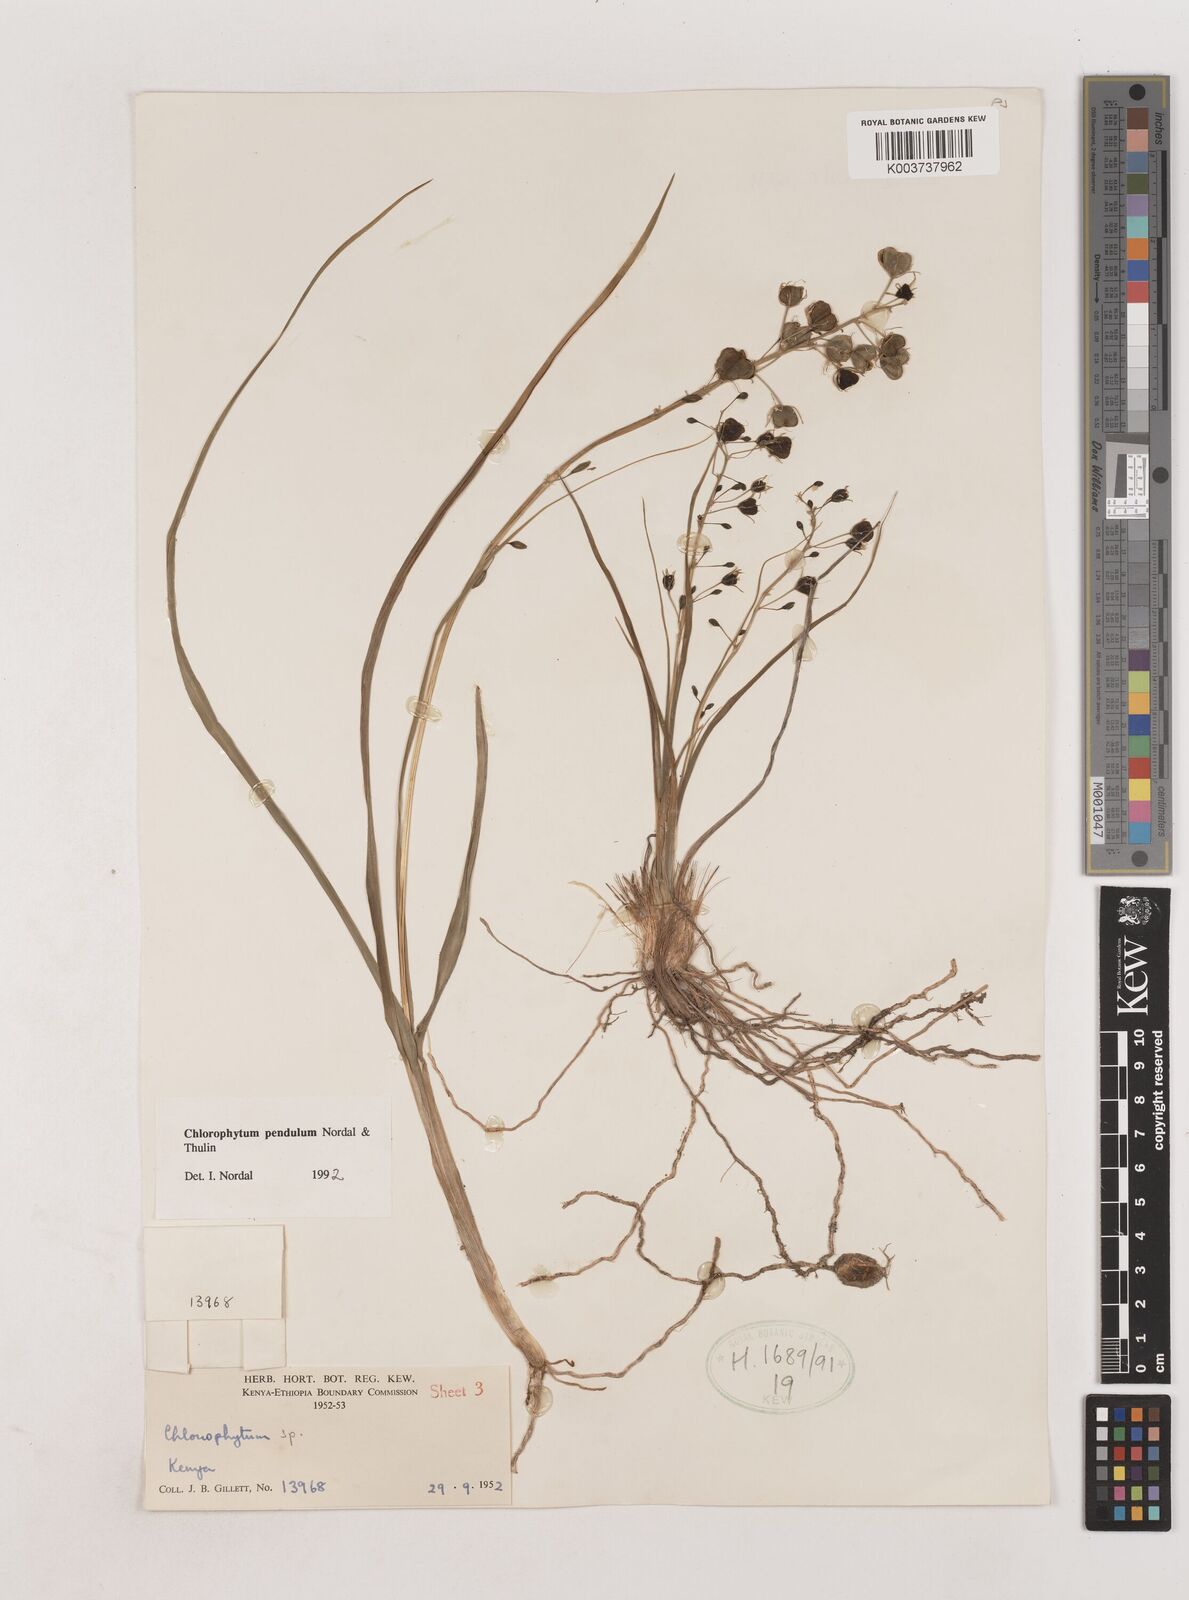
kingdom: Plantae
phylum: Tracheophyta
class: Liliopsida
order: Asparagales
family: Asparagaceae
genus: Chlorophytum
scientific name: Chlorophytum pendulum
